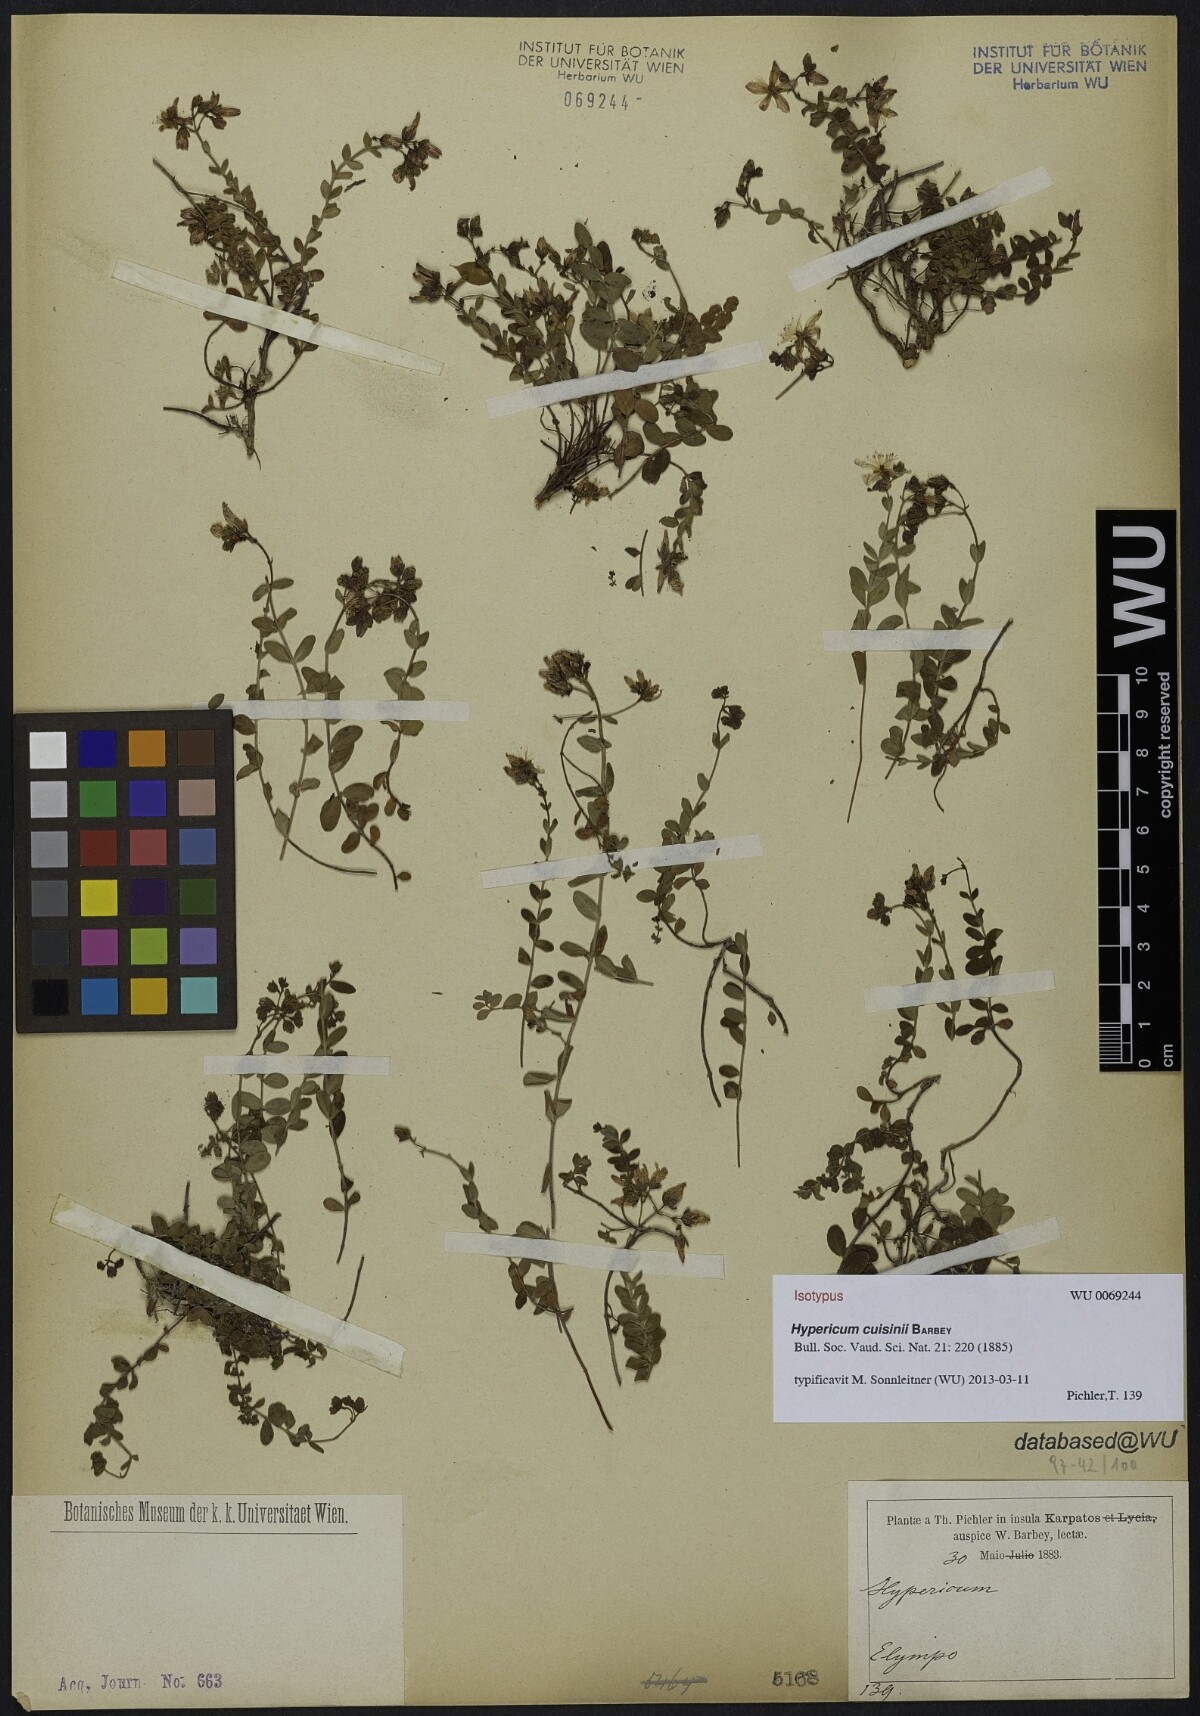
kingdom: Plantae
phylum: Tracheophyta
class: Magnoliopsida
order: Malpighiales
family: Hypericaceae
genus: Hypericum
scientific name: Hypericum cuisinii
